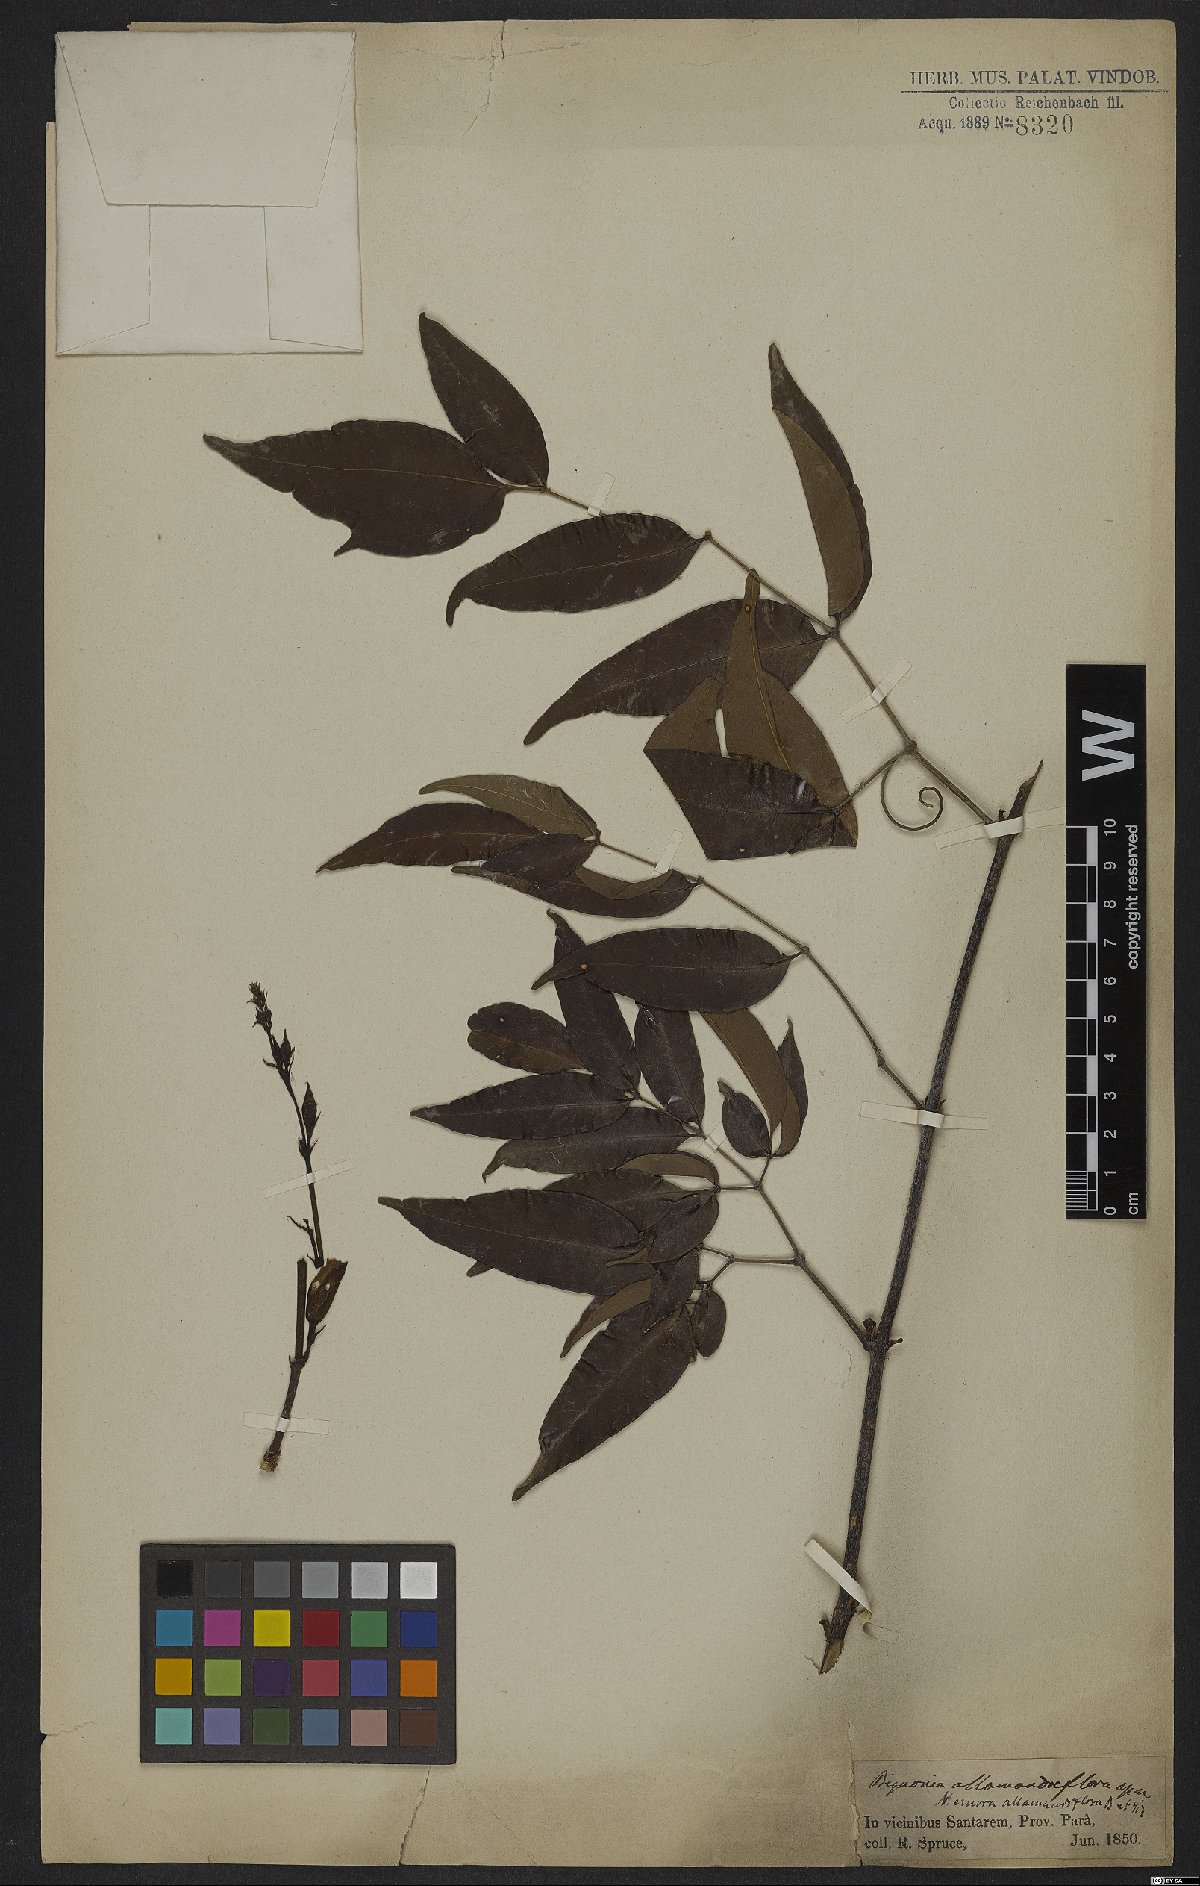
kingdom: Plantae
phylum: Tracheophyta
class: Magnoliopsida
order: Lamiales
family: Bignoniaceae
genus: Adenocalymma
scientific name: Adenocalymma allamandiflorum
